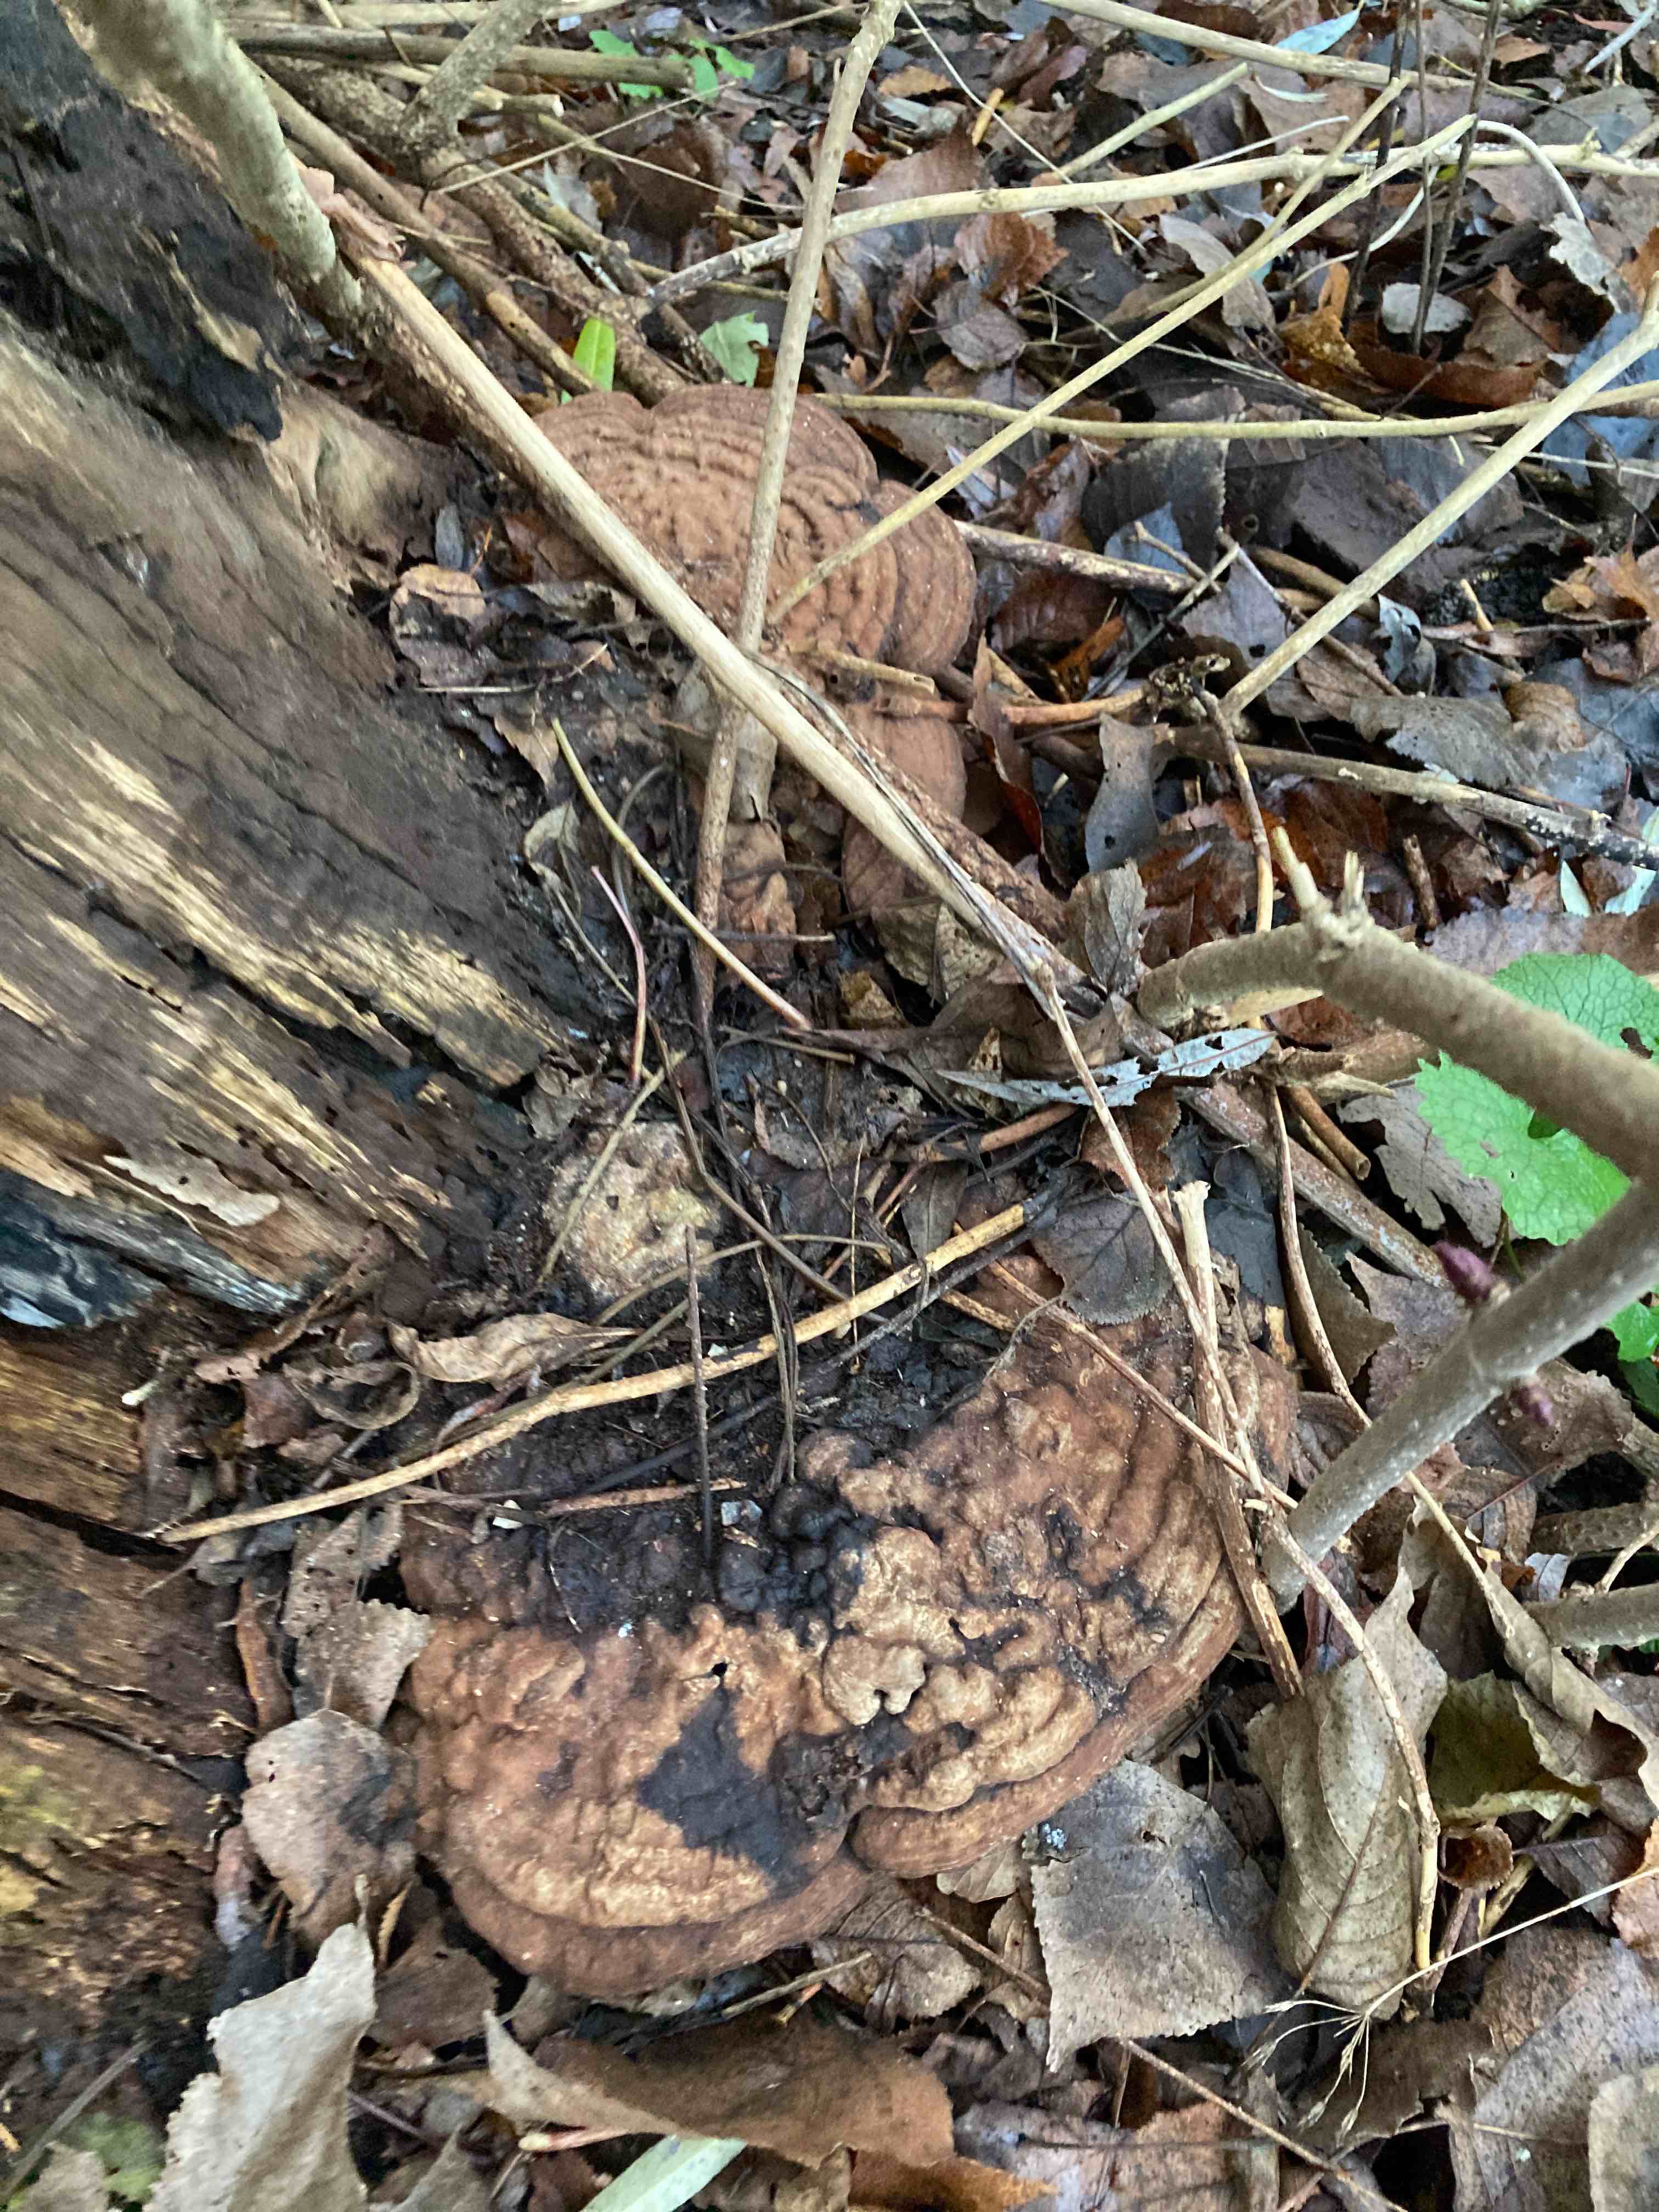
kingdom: Fungi
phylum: Basidiomycota
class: Agaricomycetes
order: Polyporales
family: Polyporaceae
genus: Ganoderma
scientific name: Ganoderma applanatum
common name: flad lakporesvamp
